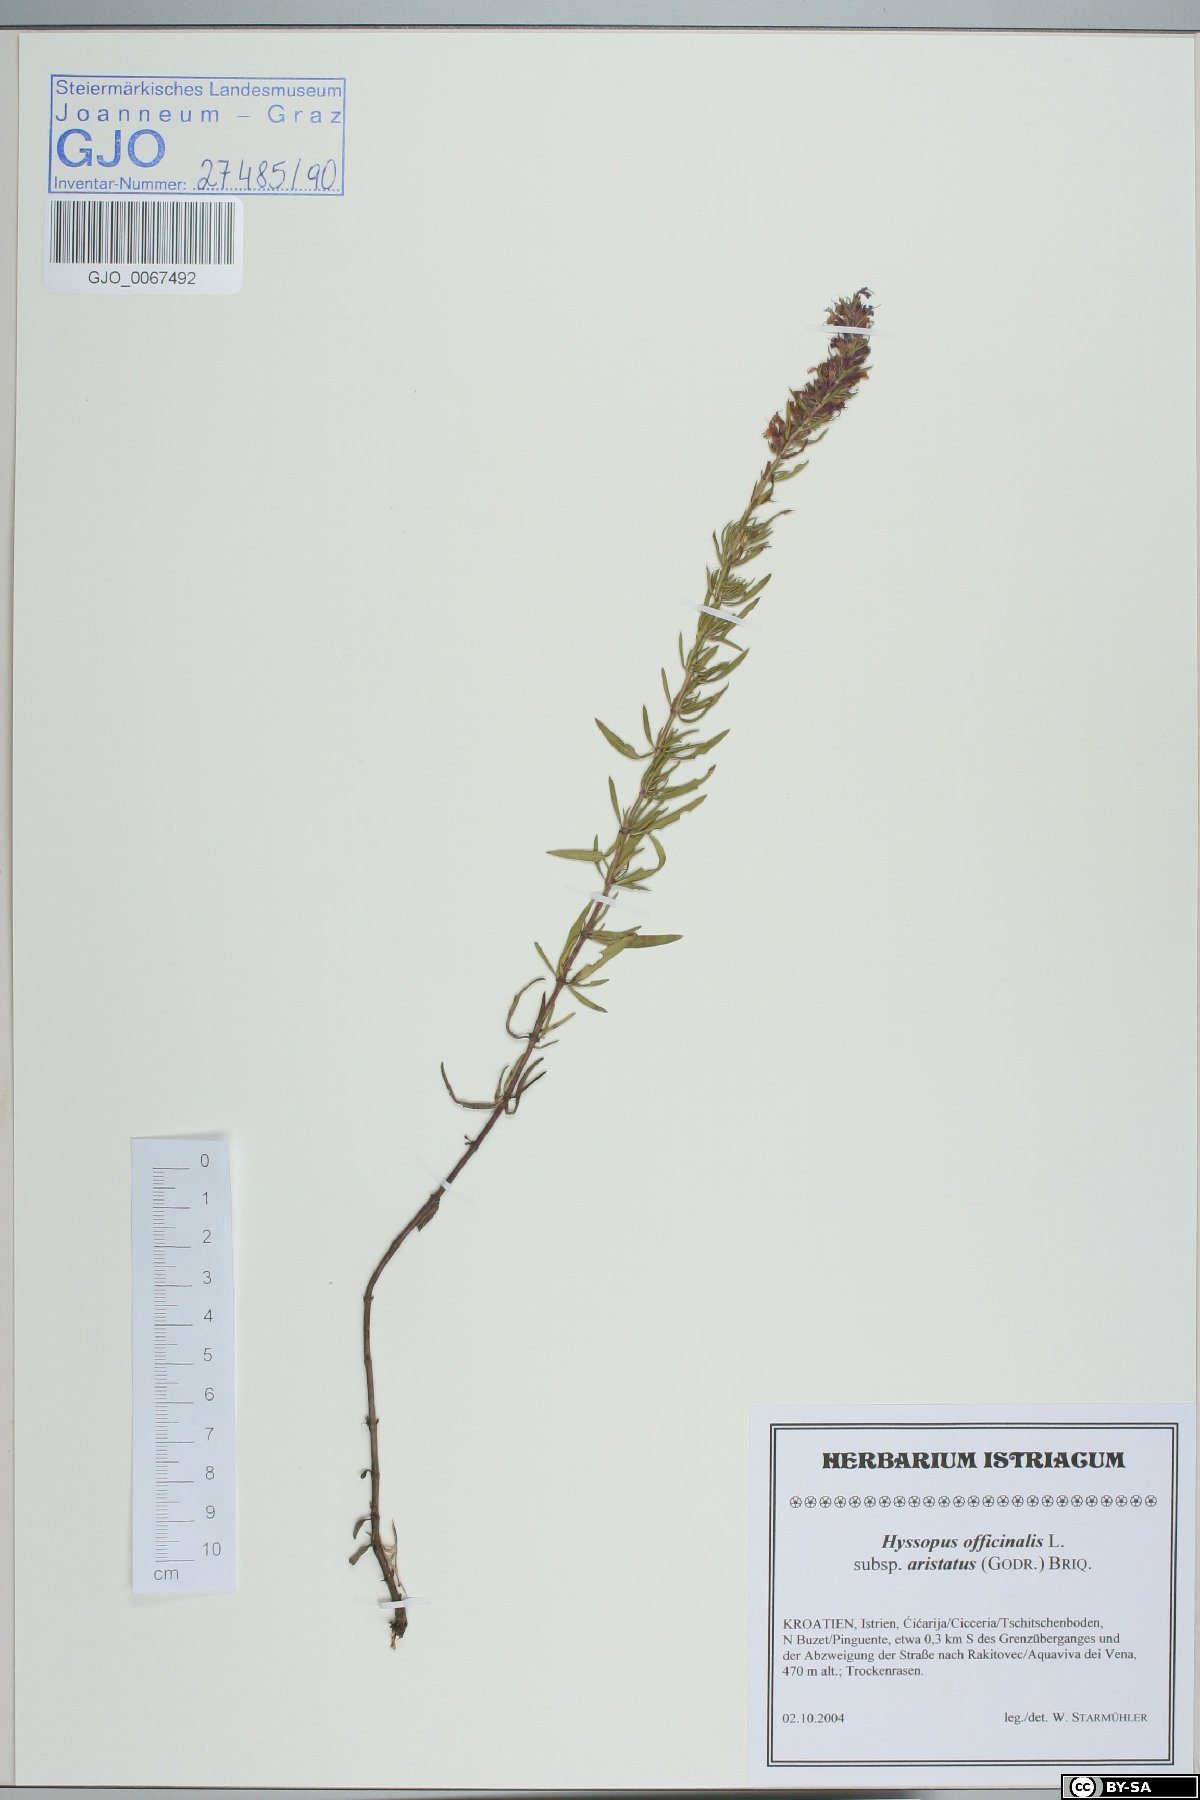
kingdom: Plantae
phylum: Tracheophyta
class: Magnoliopsida
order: Lamiales
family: Lamiaceae
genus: Hyssopus
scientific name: Hyssopus officinalis
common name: Hyssop
